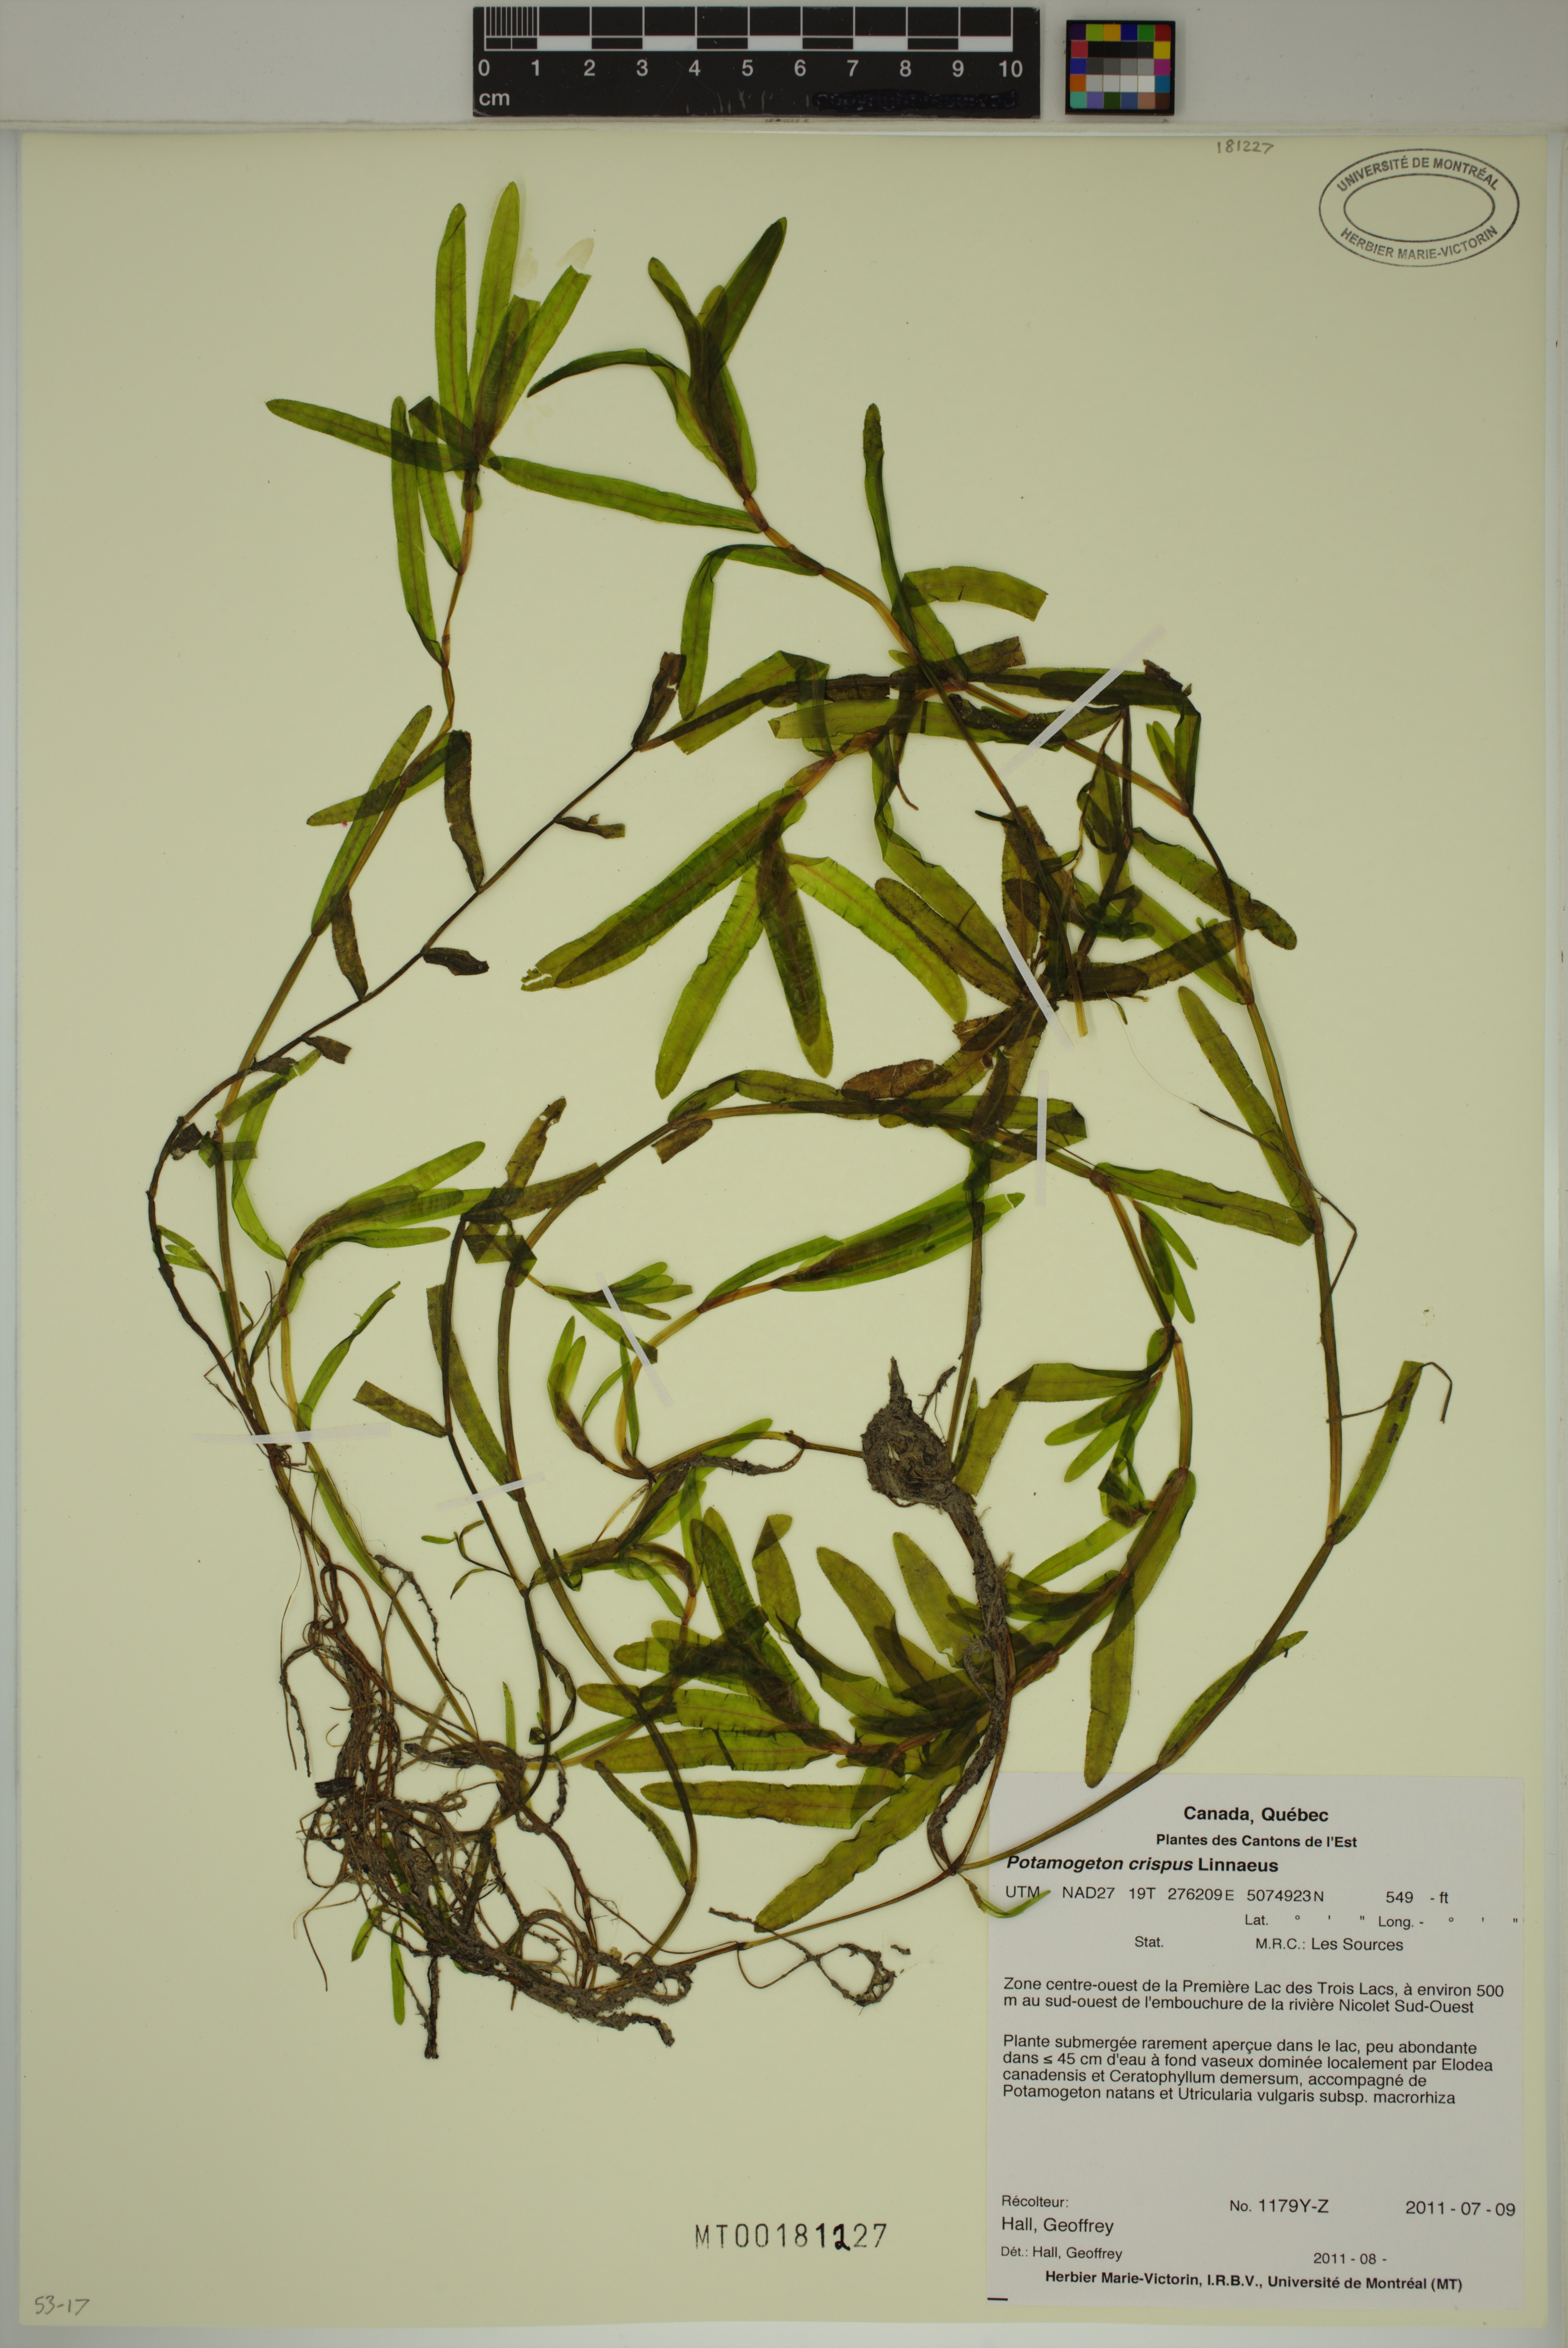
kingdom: Plantae
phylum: Tracheophyta
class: Liliopsida
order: Alismatales
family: Potamogetonaceae
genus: Potamogeton
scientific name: Potamogeton crispus
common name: Curled pondweed
